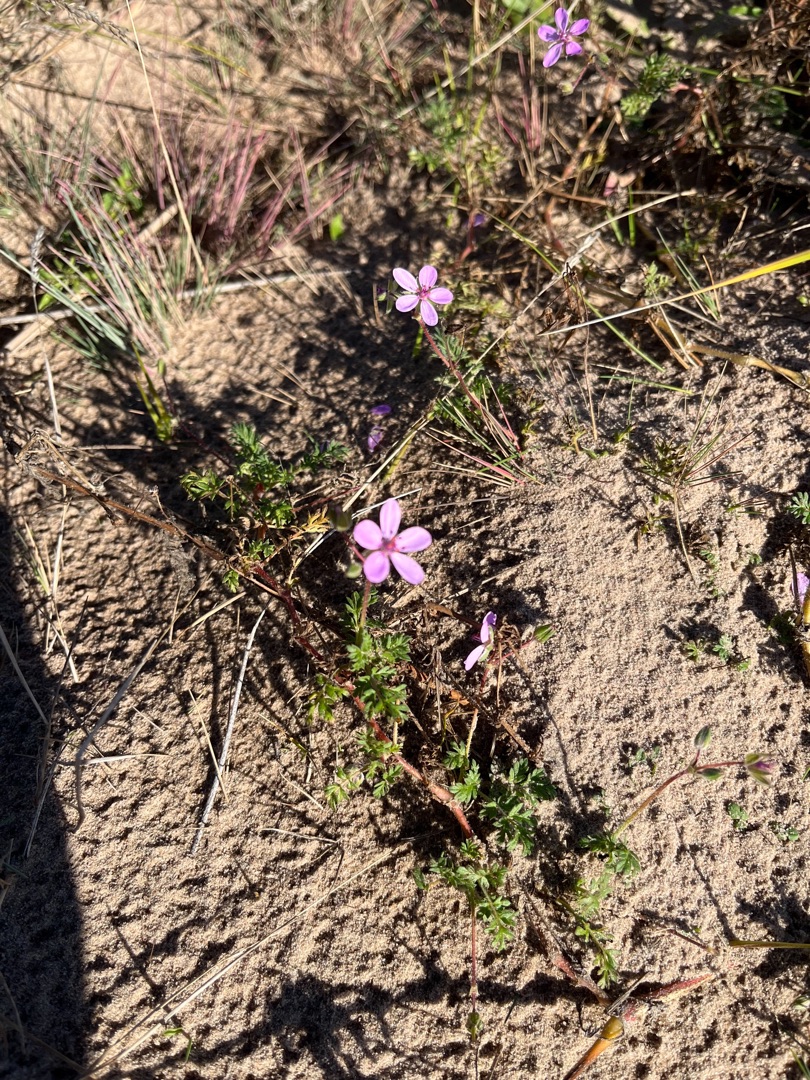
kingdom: Plantae
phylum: Tracheophyta
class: Magnoliopsida
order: Geraniales
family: Geraniaceae
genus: Erodium
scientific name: Erodium cicutarium
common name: Hejrenæb
